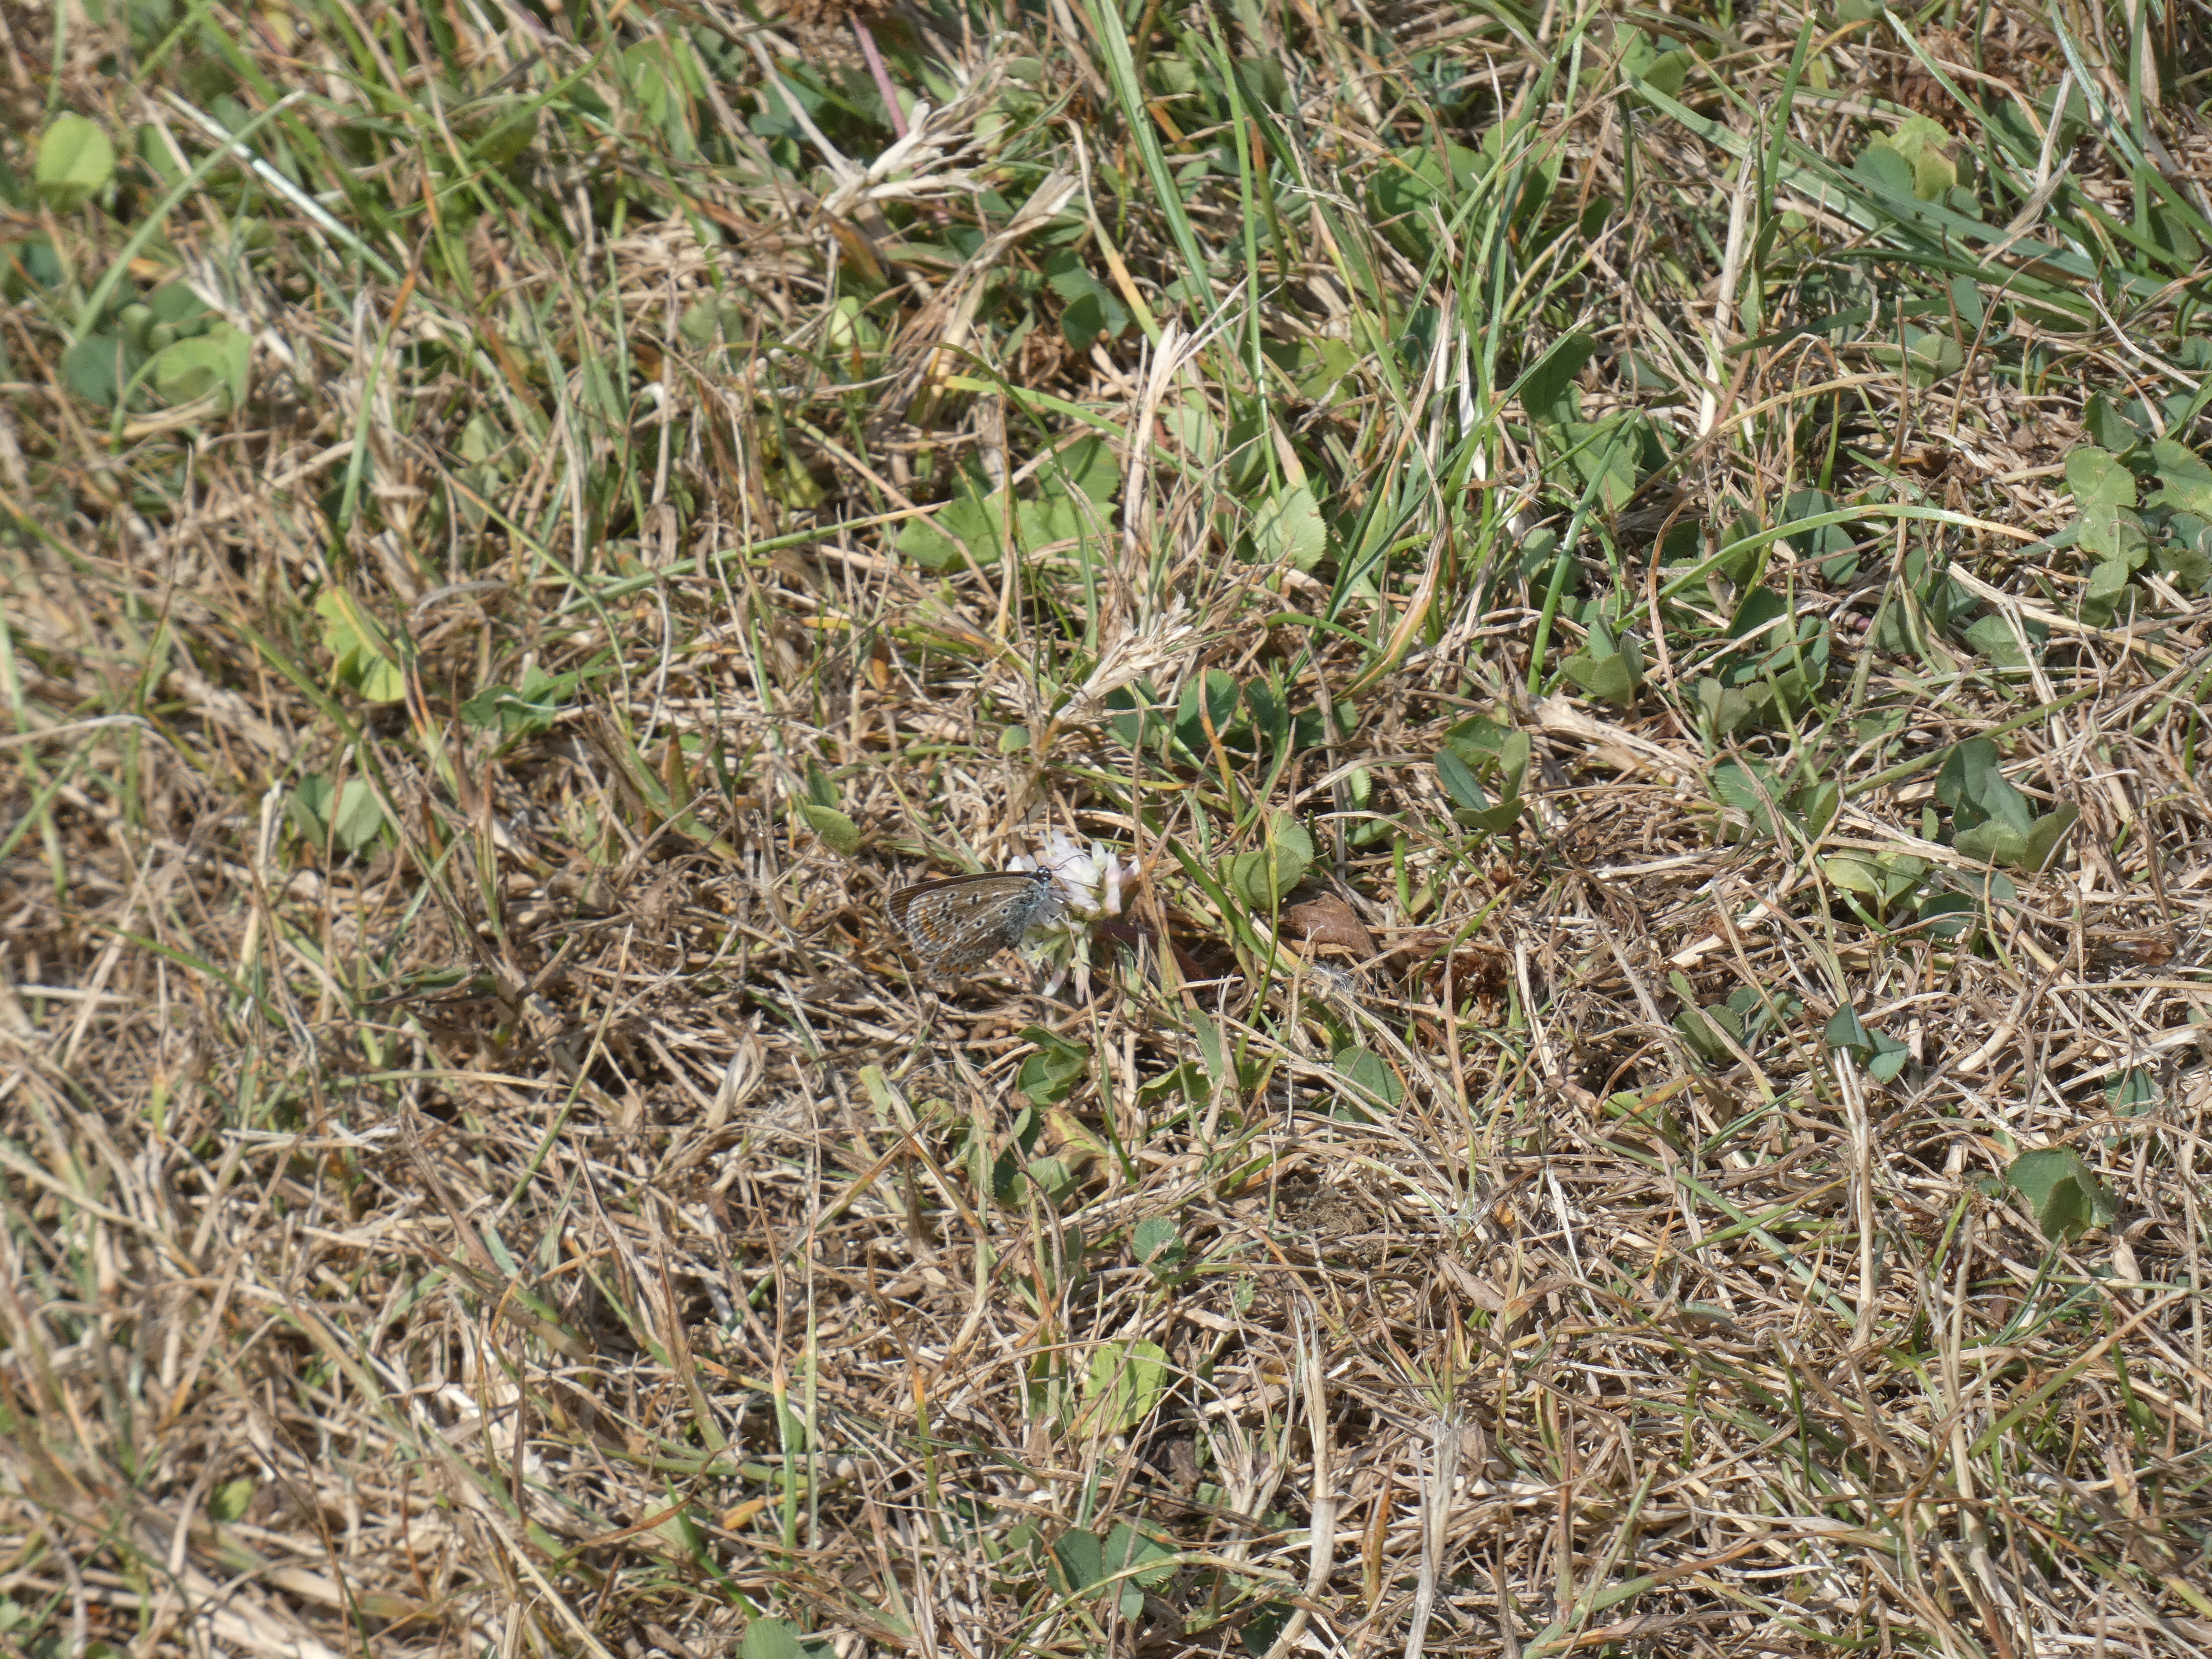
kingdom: Animalia
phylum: Arthropoda
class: Insecta
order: Lepidoptera
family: Lycaenidae
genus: Polyommatus
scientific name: Polyommatus icarus
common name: Almindelig blåfugl
